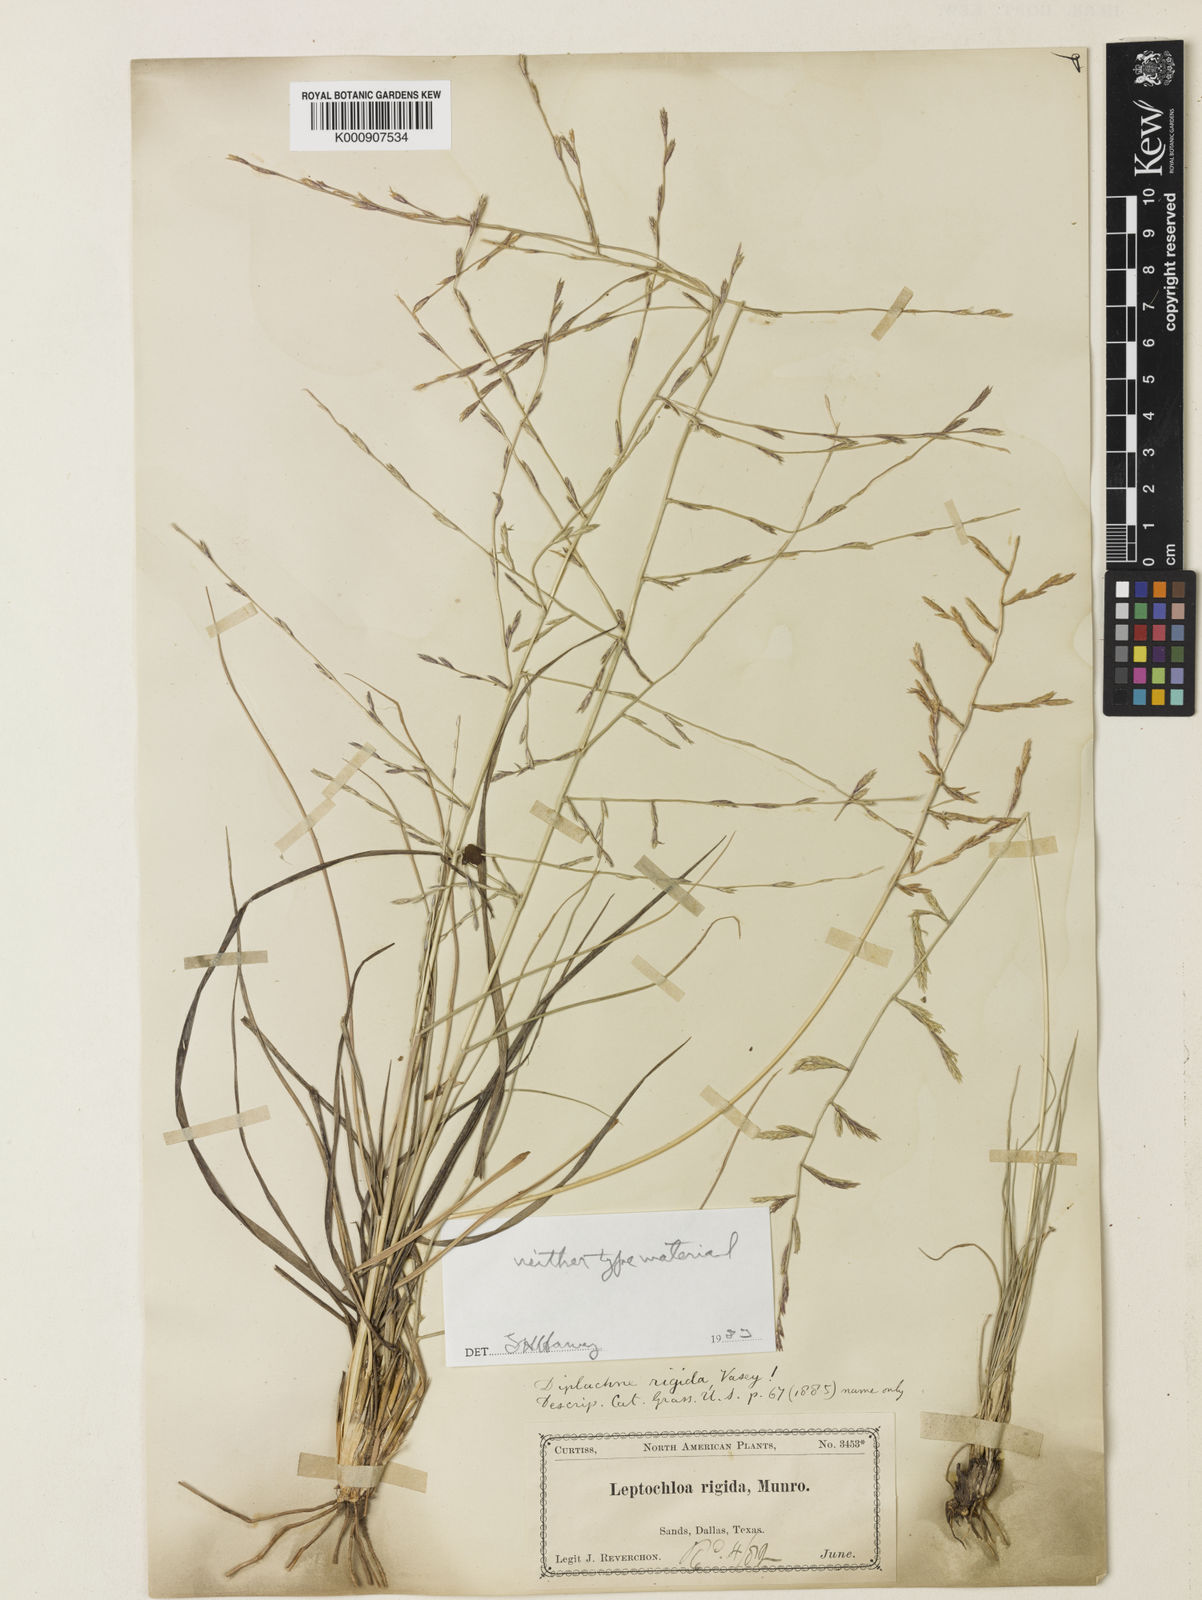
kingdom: Plantae
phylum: Tracheophyta
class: Liliopsida
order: Poales
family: Poaceae
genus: Eragrostis
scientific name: Eragrostis sessilispica
